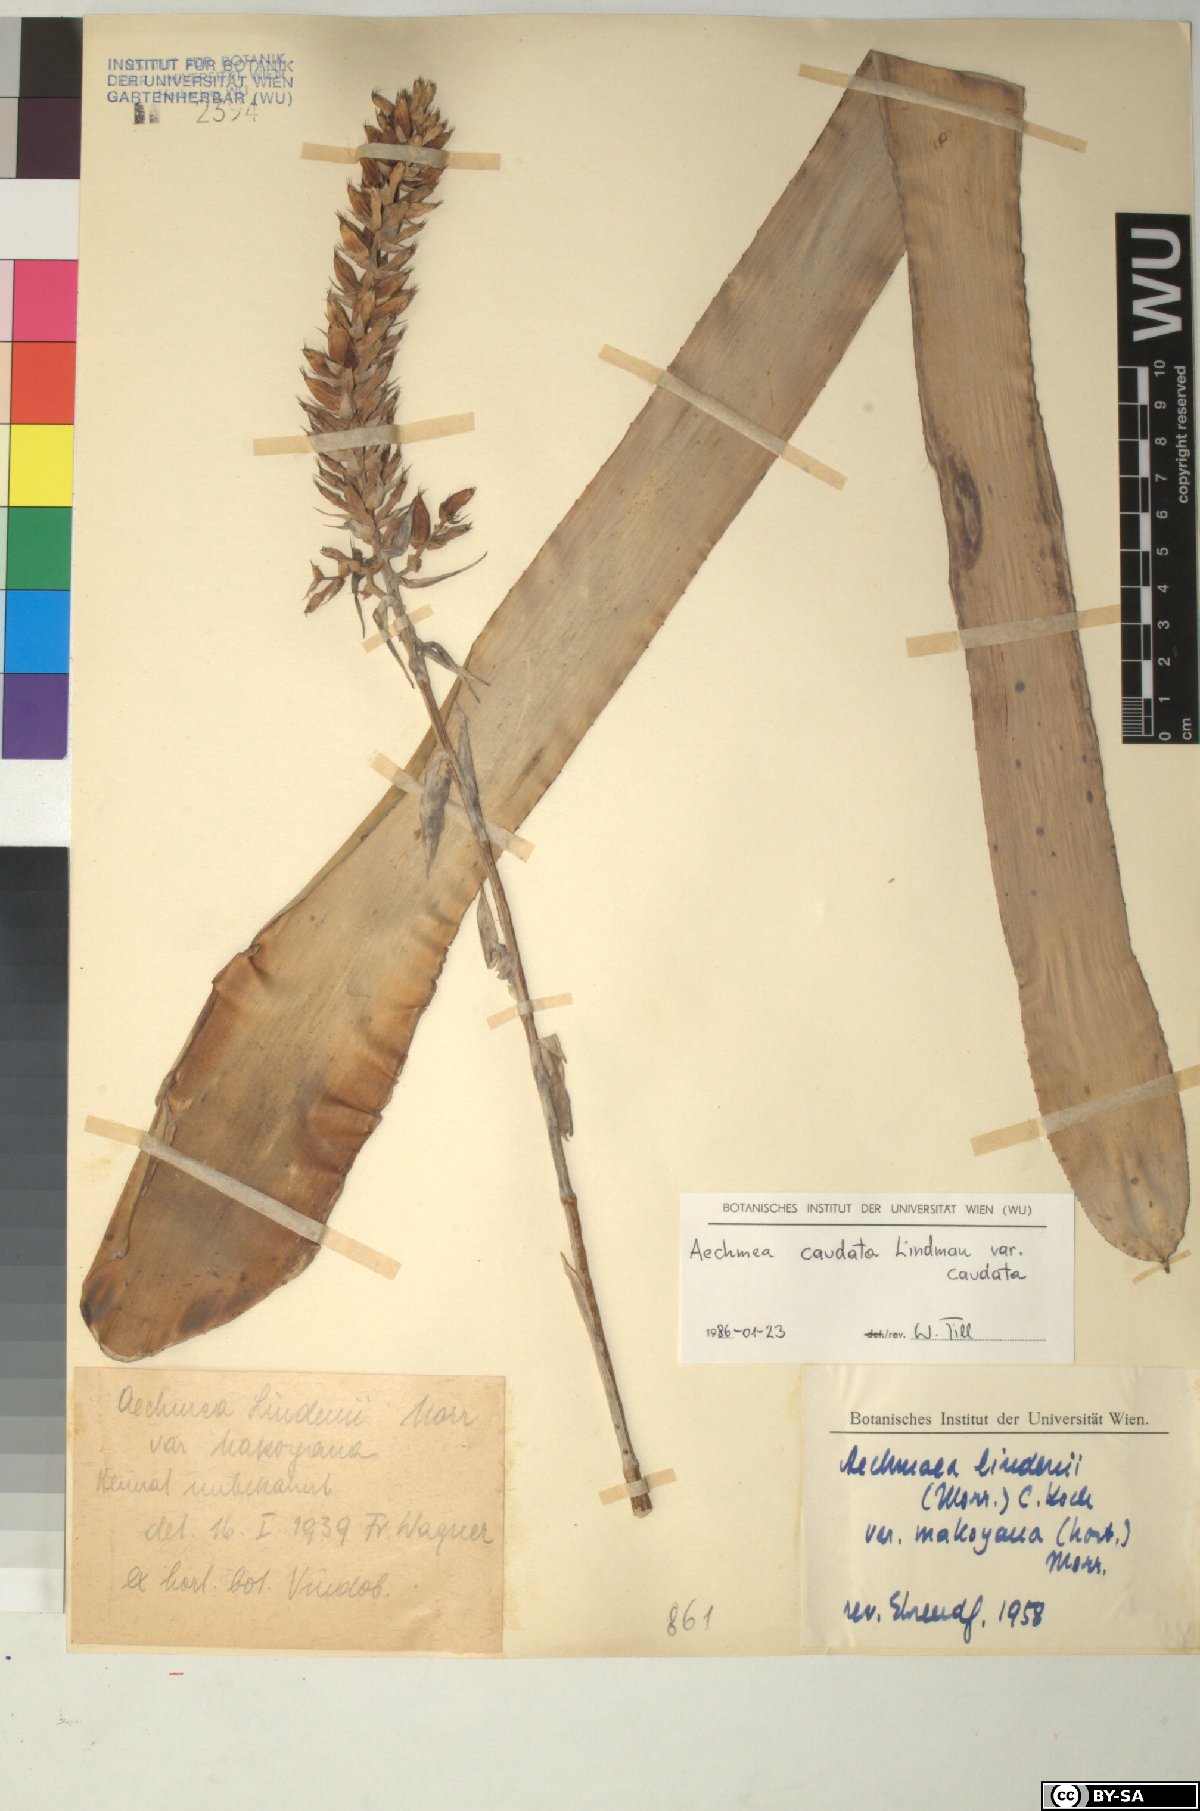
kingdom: Plantae
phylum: Tracheophyta
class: Liliopsida
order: Poales
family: Bromeliaceae
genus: Aechmea
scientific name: Aechmea caudata
